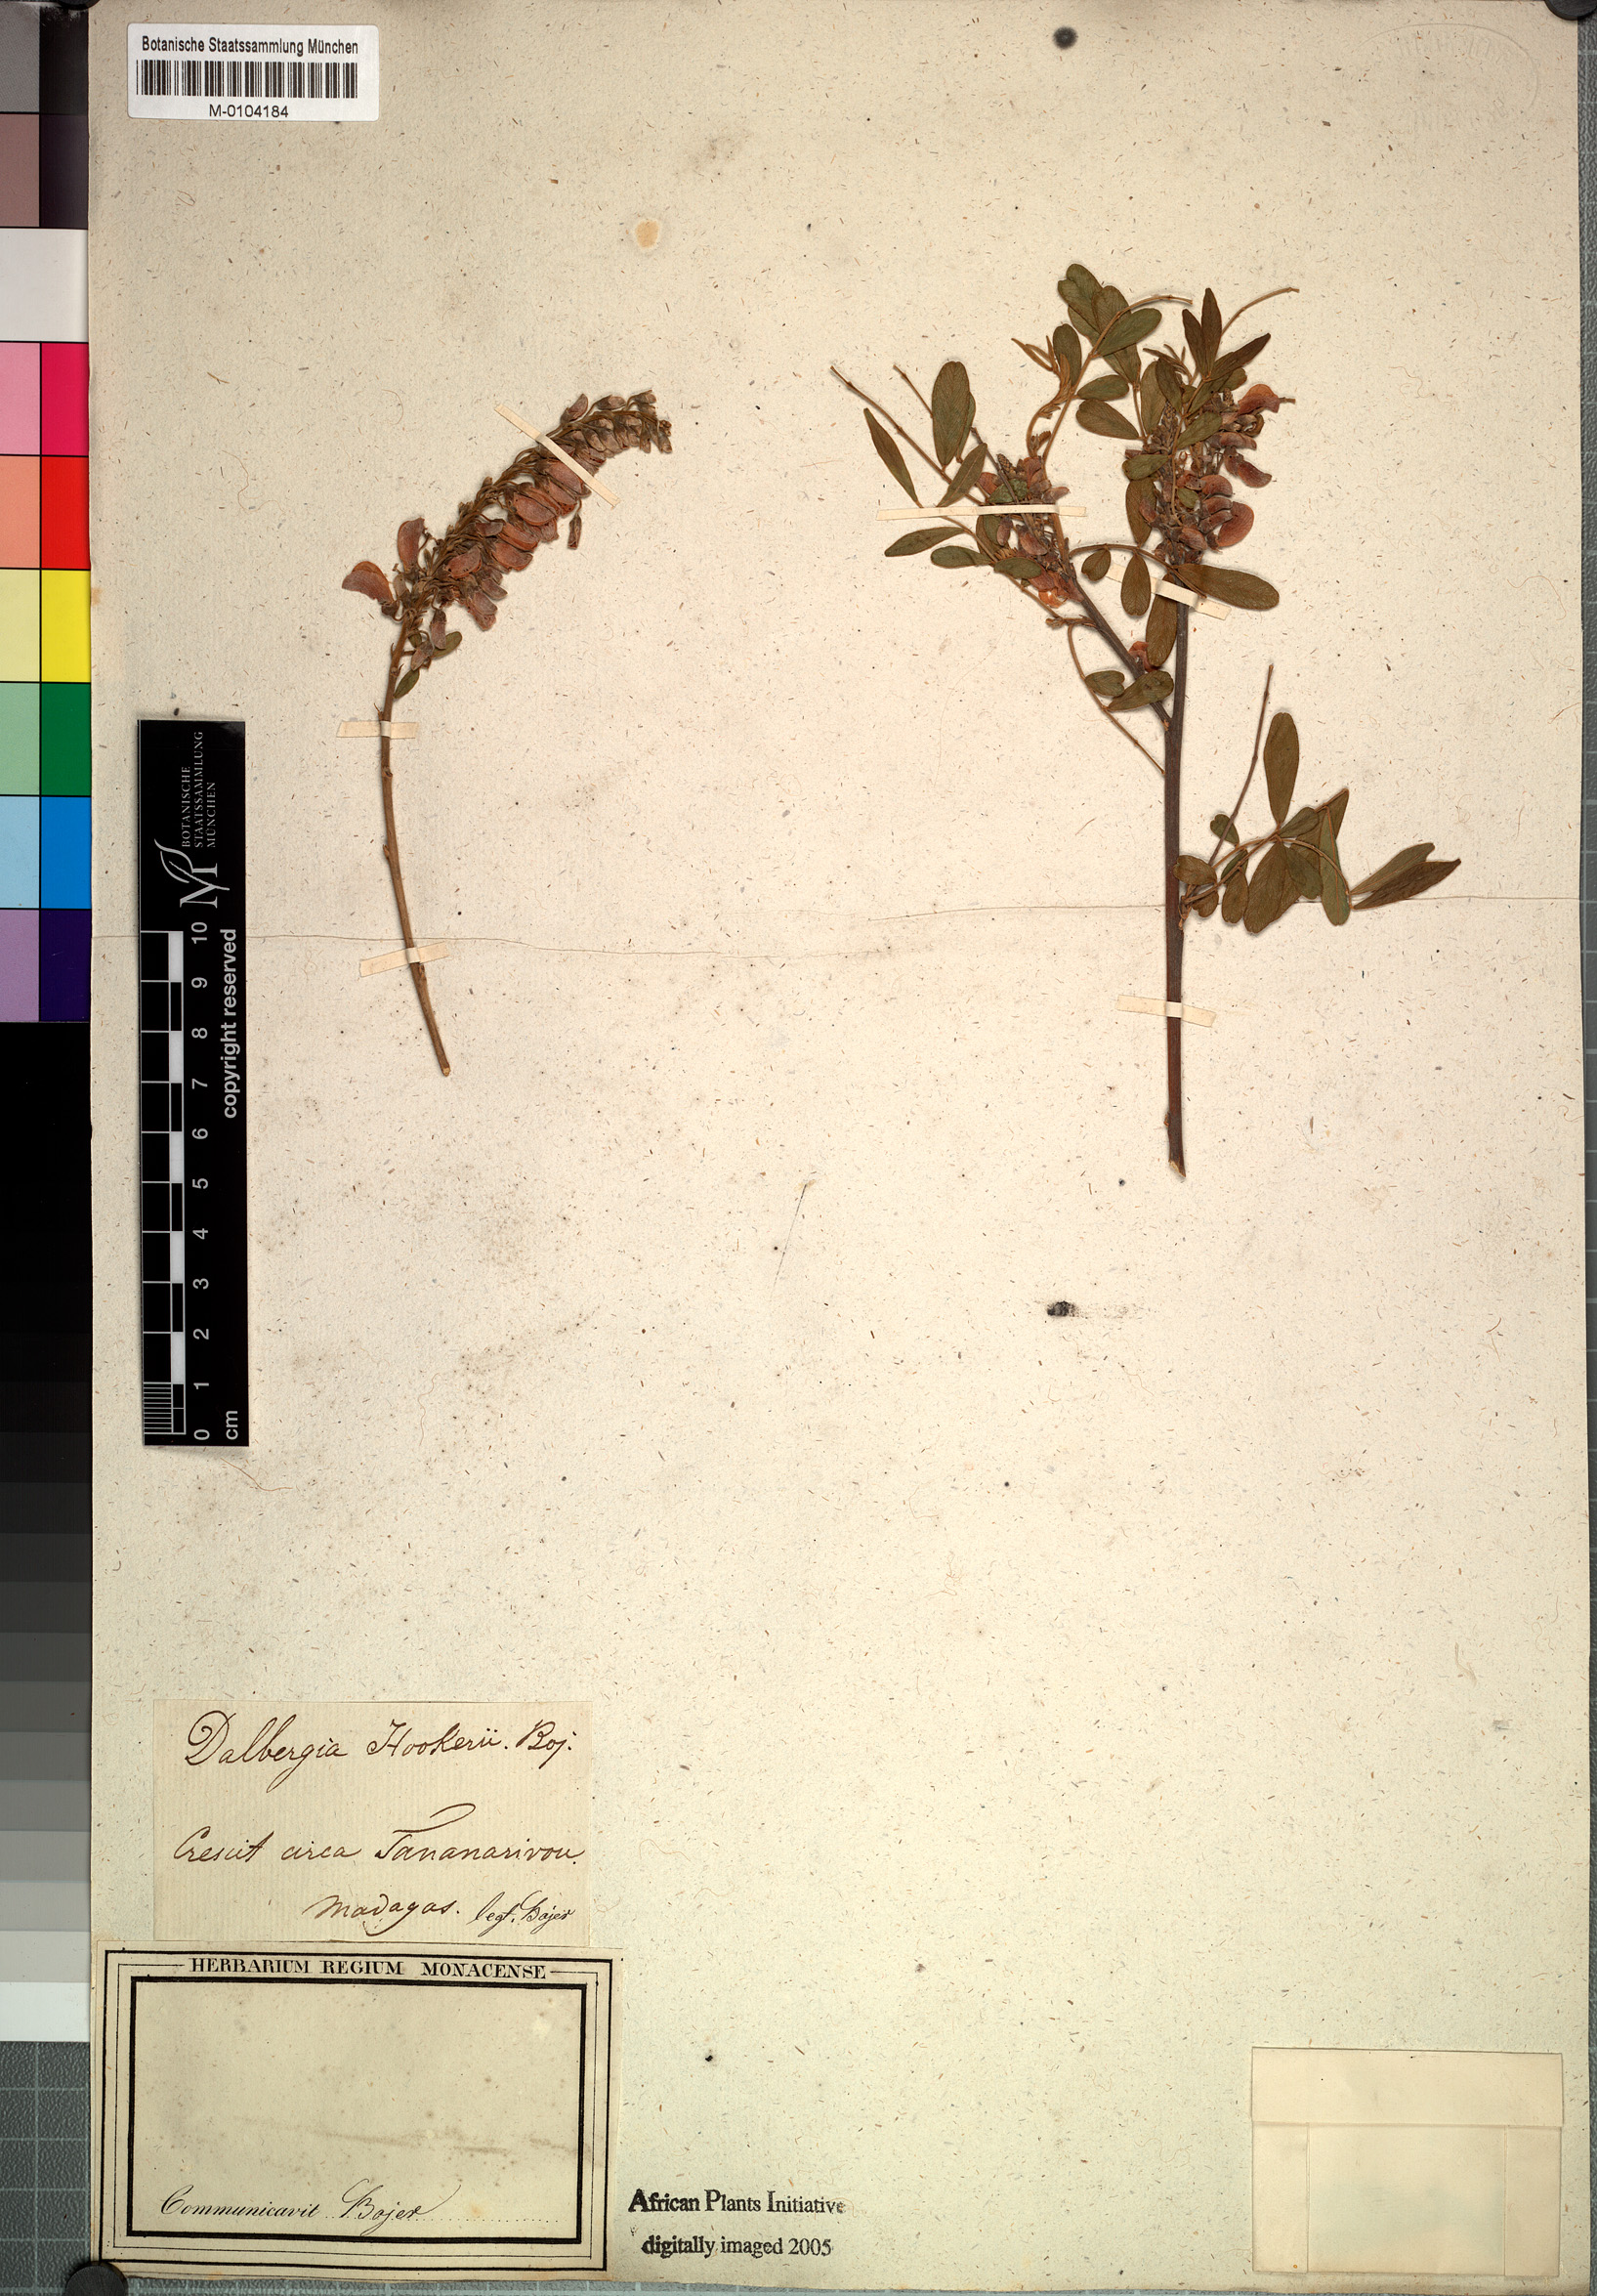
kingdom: Plantae
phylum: Tracheophyta
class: Magnoliopsida
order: Fabales
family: Fabaceae
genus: Mundulea
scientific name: Mundulea sericea
